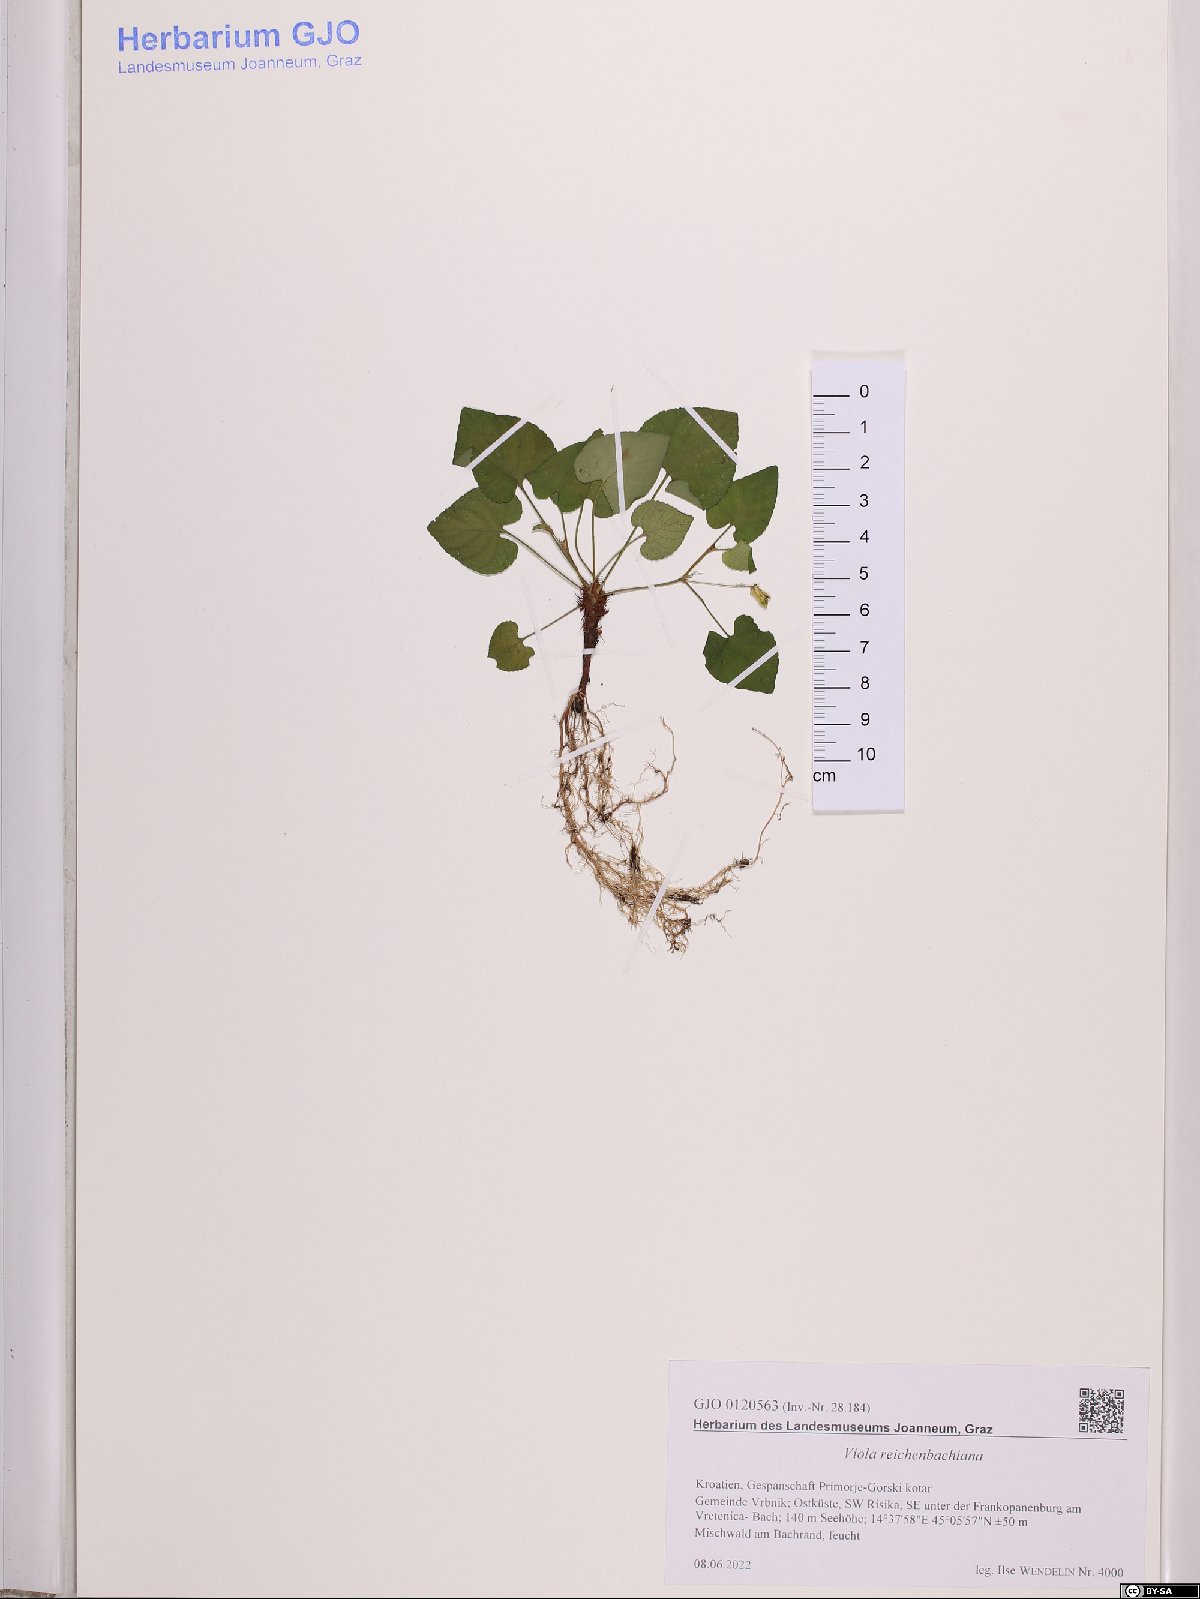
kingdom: Plantae
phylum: Tracheophyta
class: Magnoliopsida
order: Malpighiales
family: Violaceae
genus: Viola
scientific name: Viola reichenbachiana
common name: Early dog-violet
